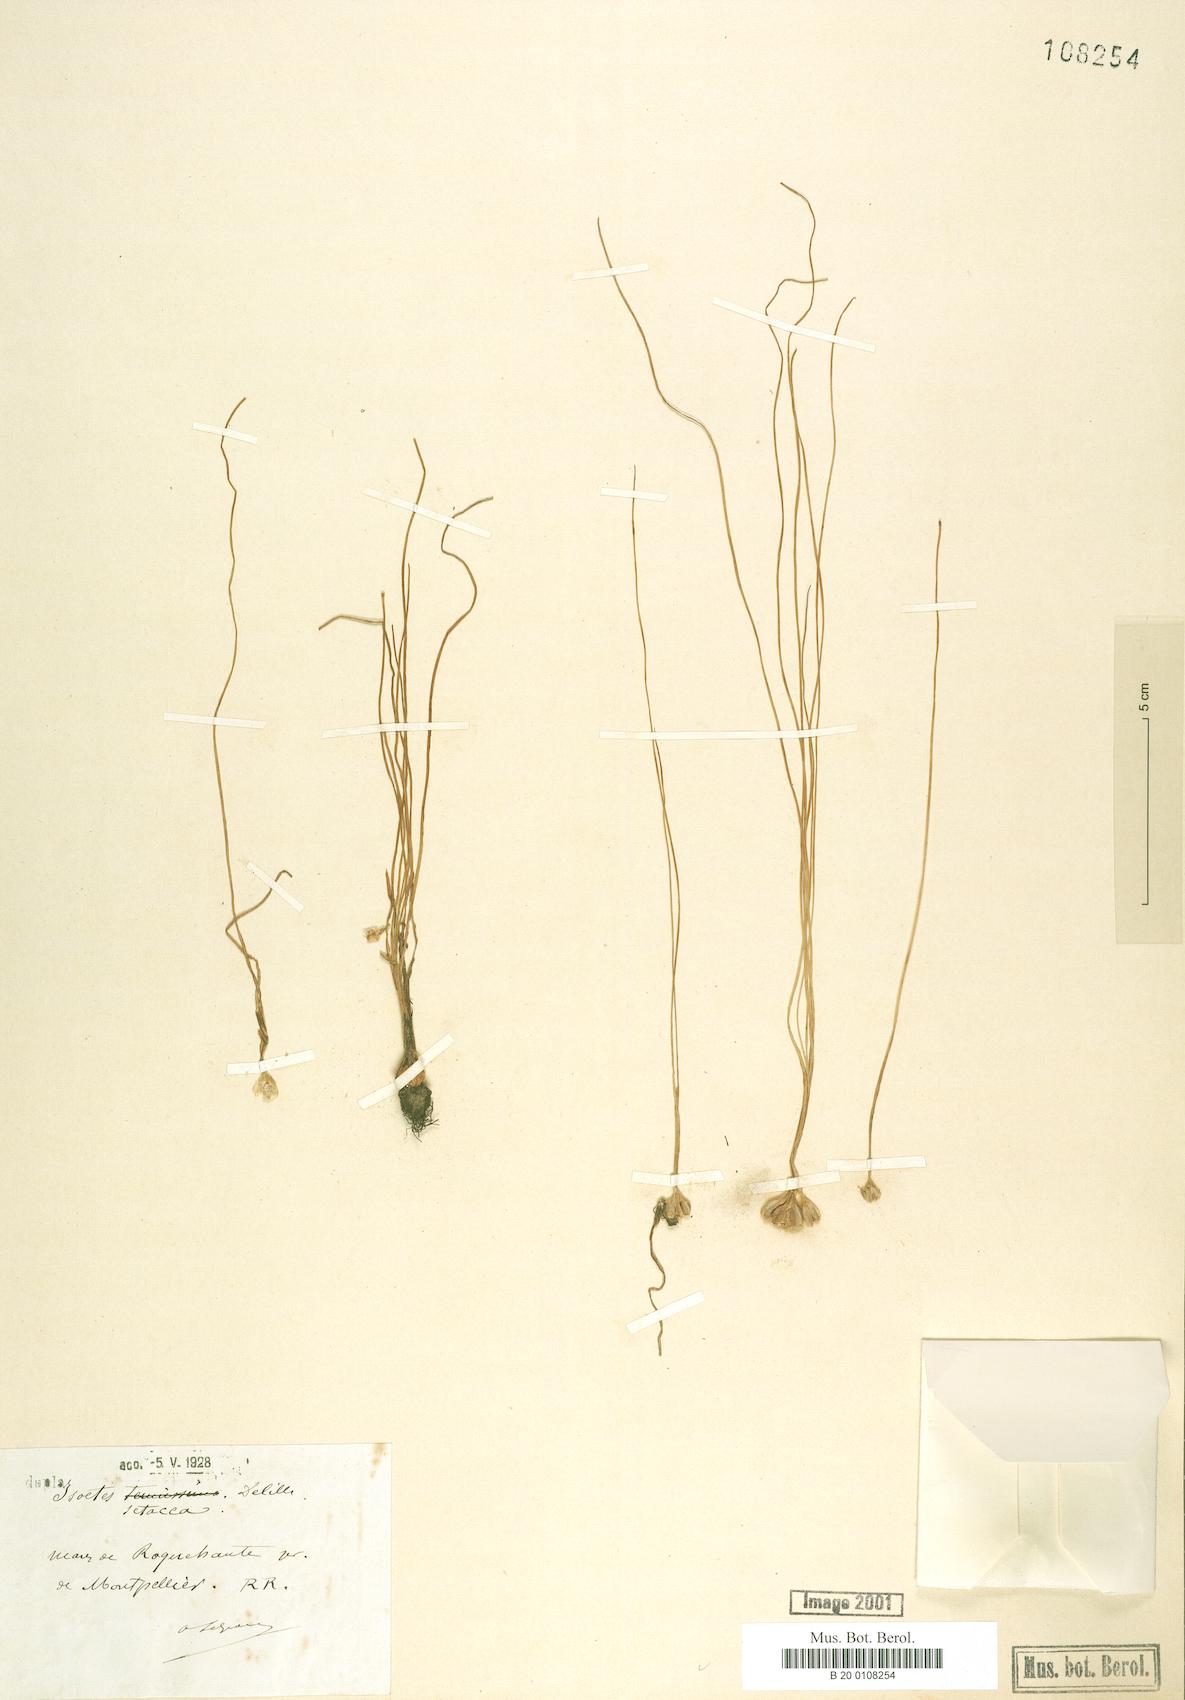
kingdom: Plantae
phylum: Tracheophyta
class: Lycopodiopsida
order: Isoetales
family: Isoetaceae
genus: Isoetes
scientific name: Isoetes lacustris
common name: Common quillwort
